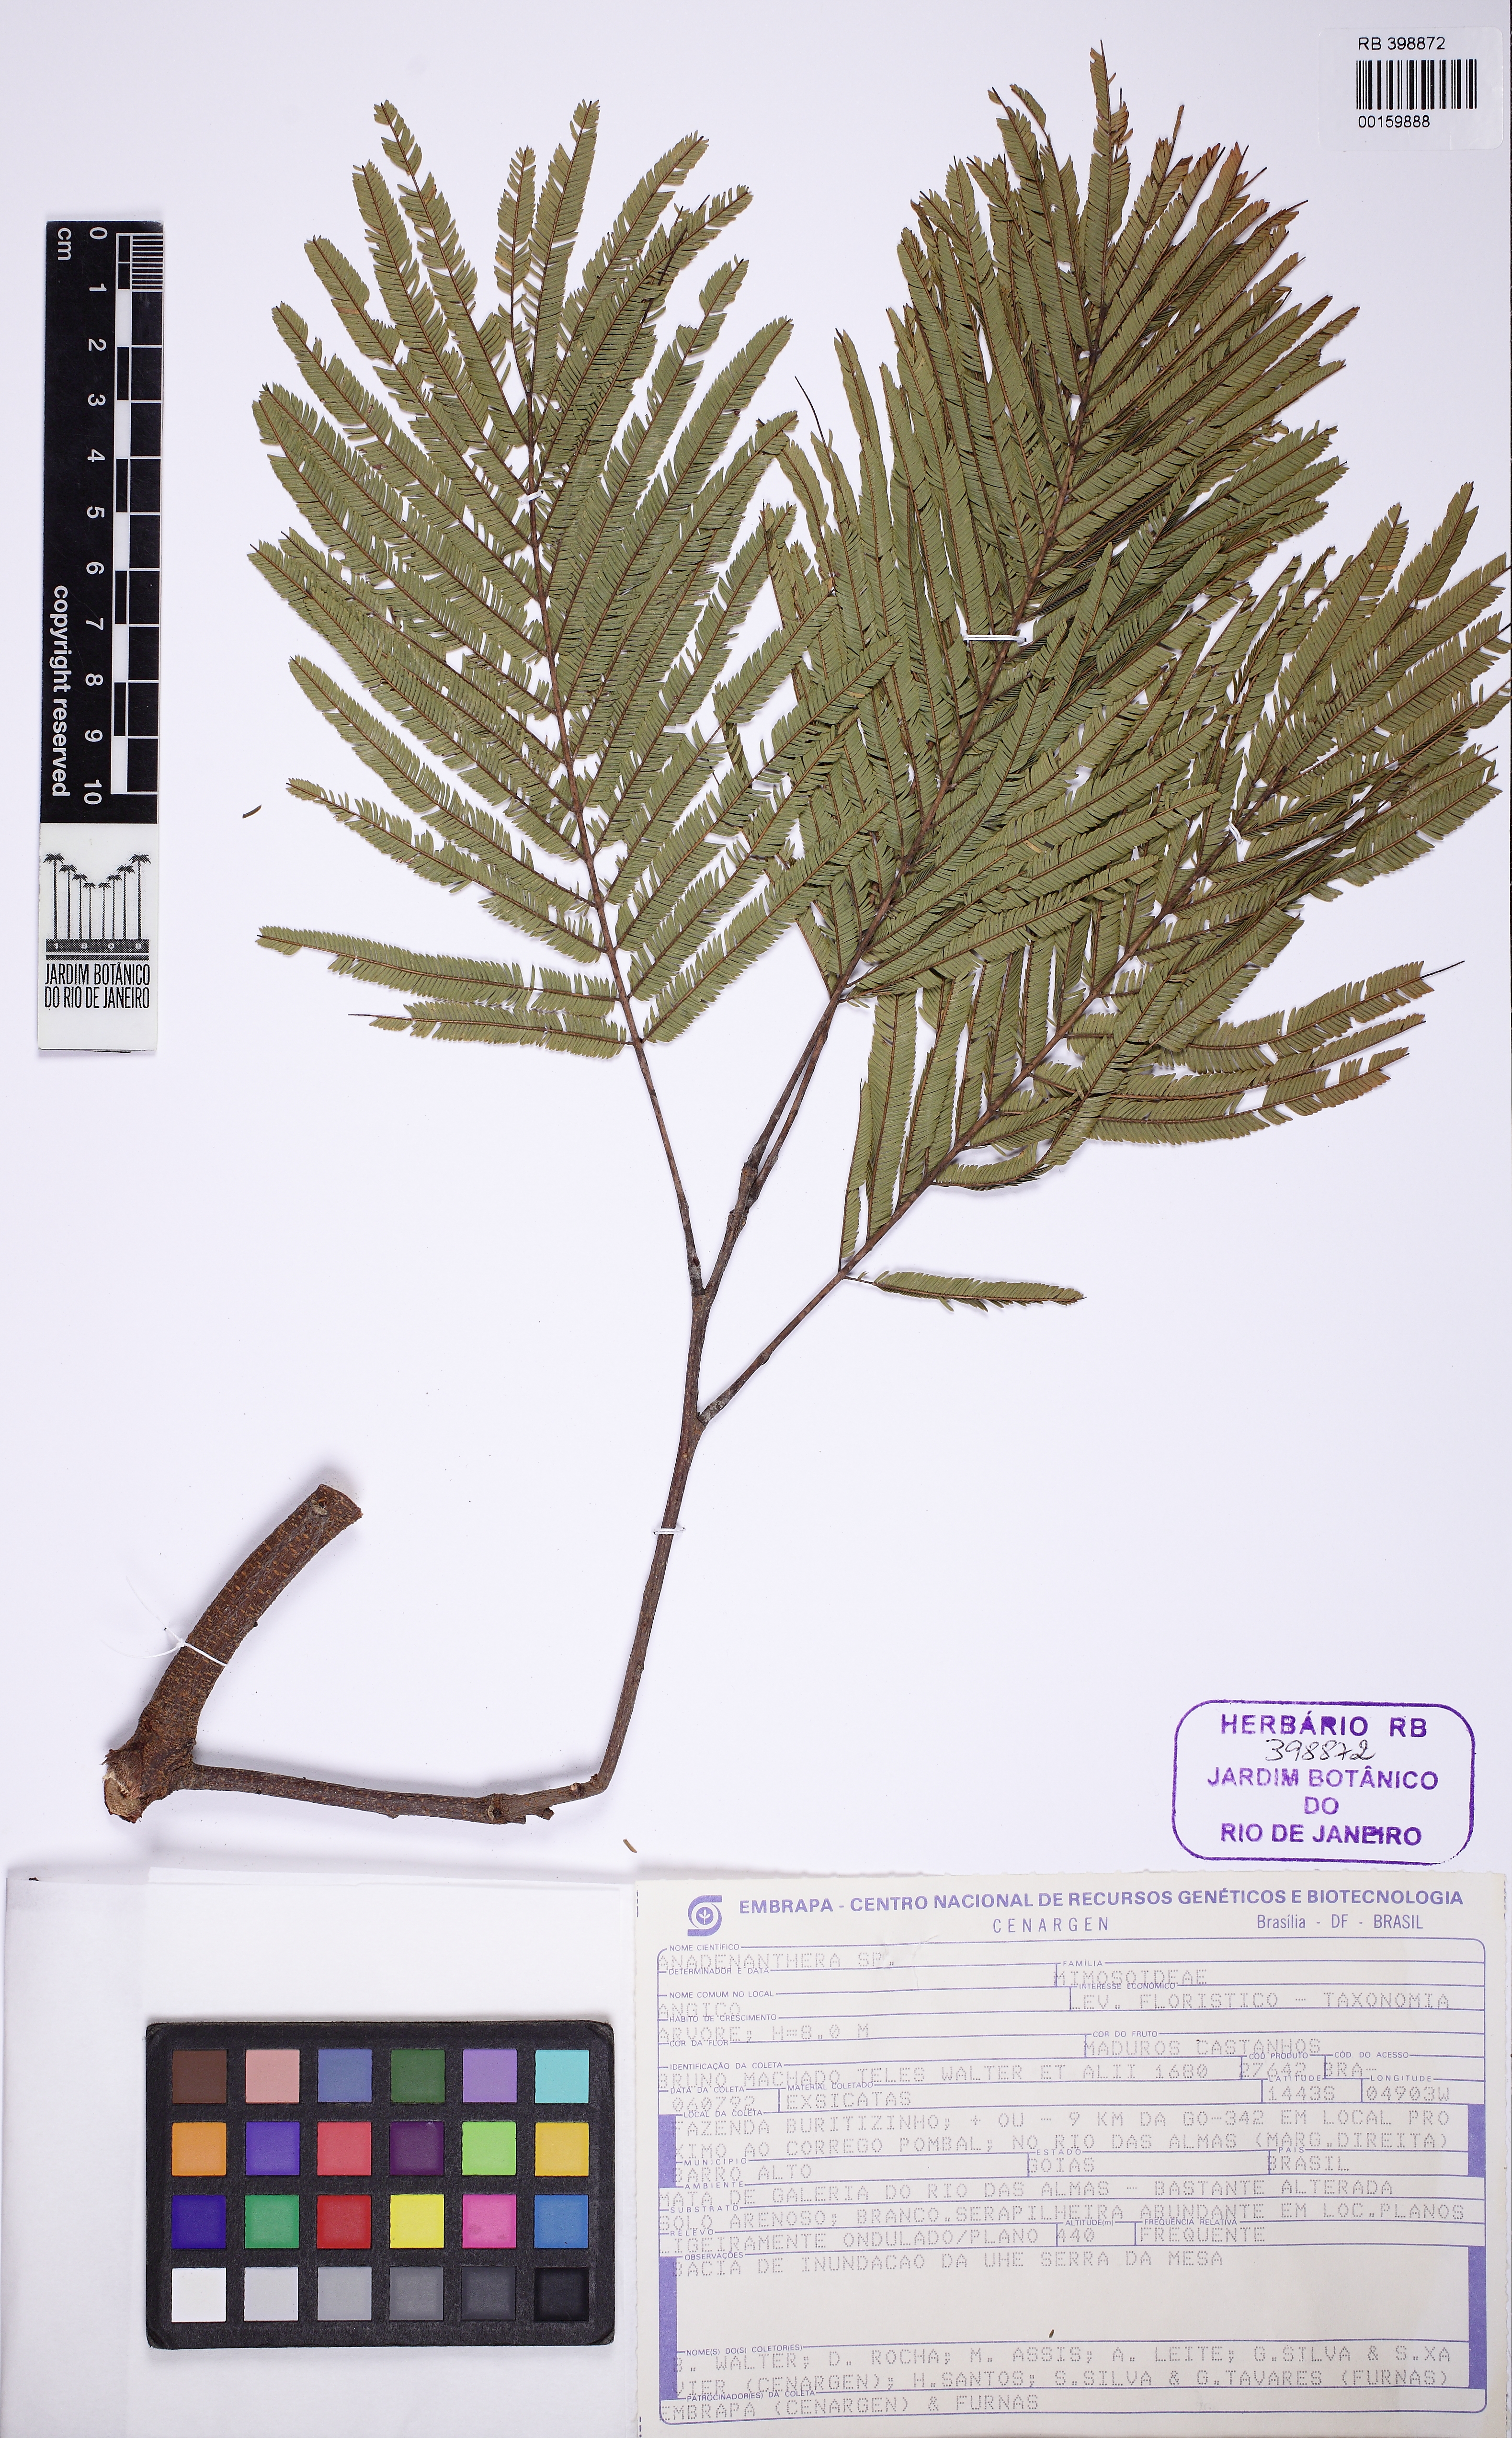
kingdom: Plantae
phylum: Tracheophyta
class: Magnoliopsida
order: Fabales
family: Fabaceae
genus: Anadenanthera
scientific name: Anadenanthera peregrina
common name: Cohoba
